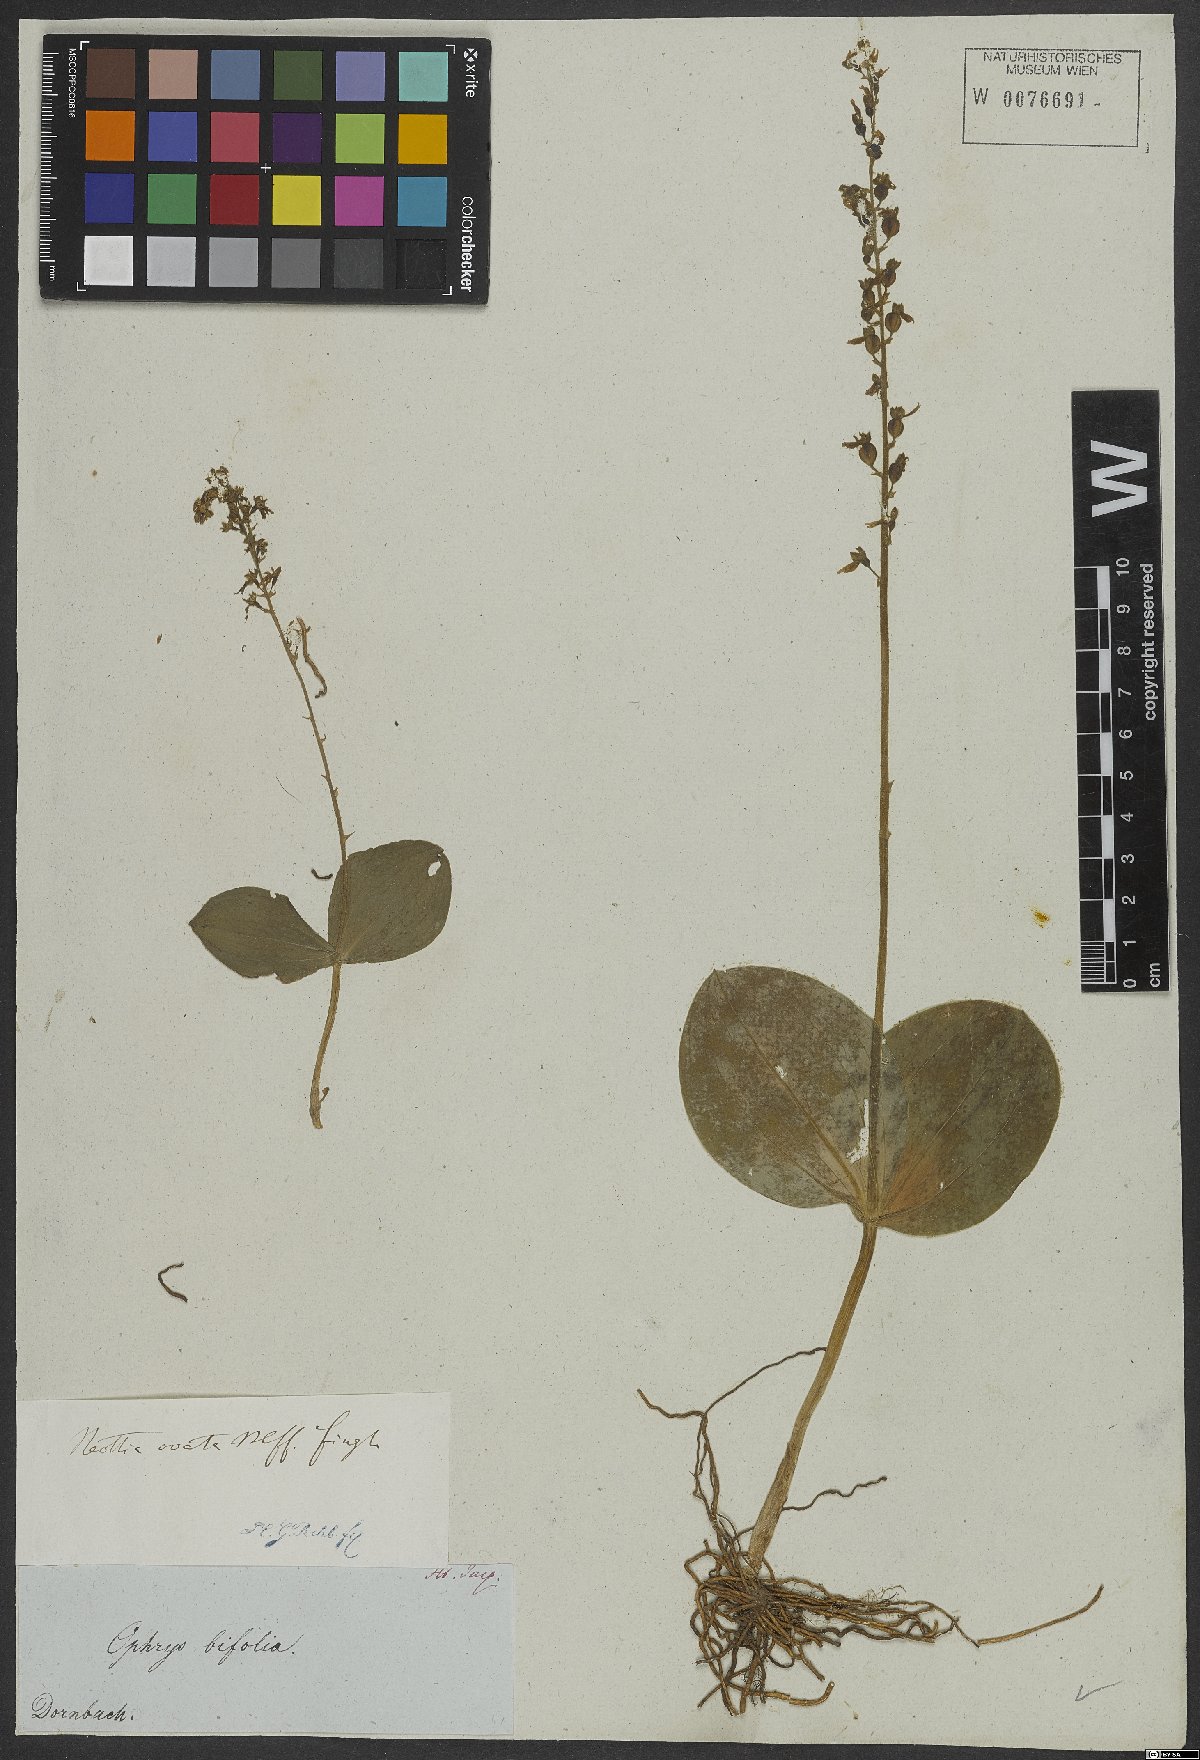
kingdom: Plantae
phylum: Tracheophyta
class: Liliopsida
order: Asparagales
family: Orchidaceae
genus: Neottia
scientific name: Neottia ovata
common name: Common twayblade
